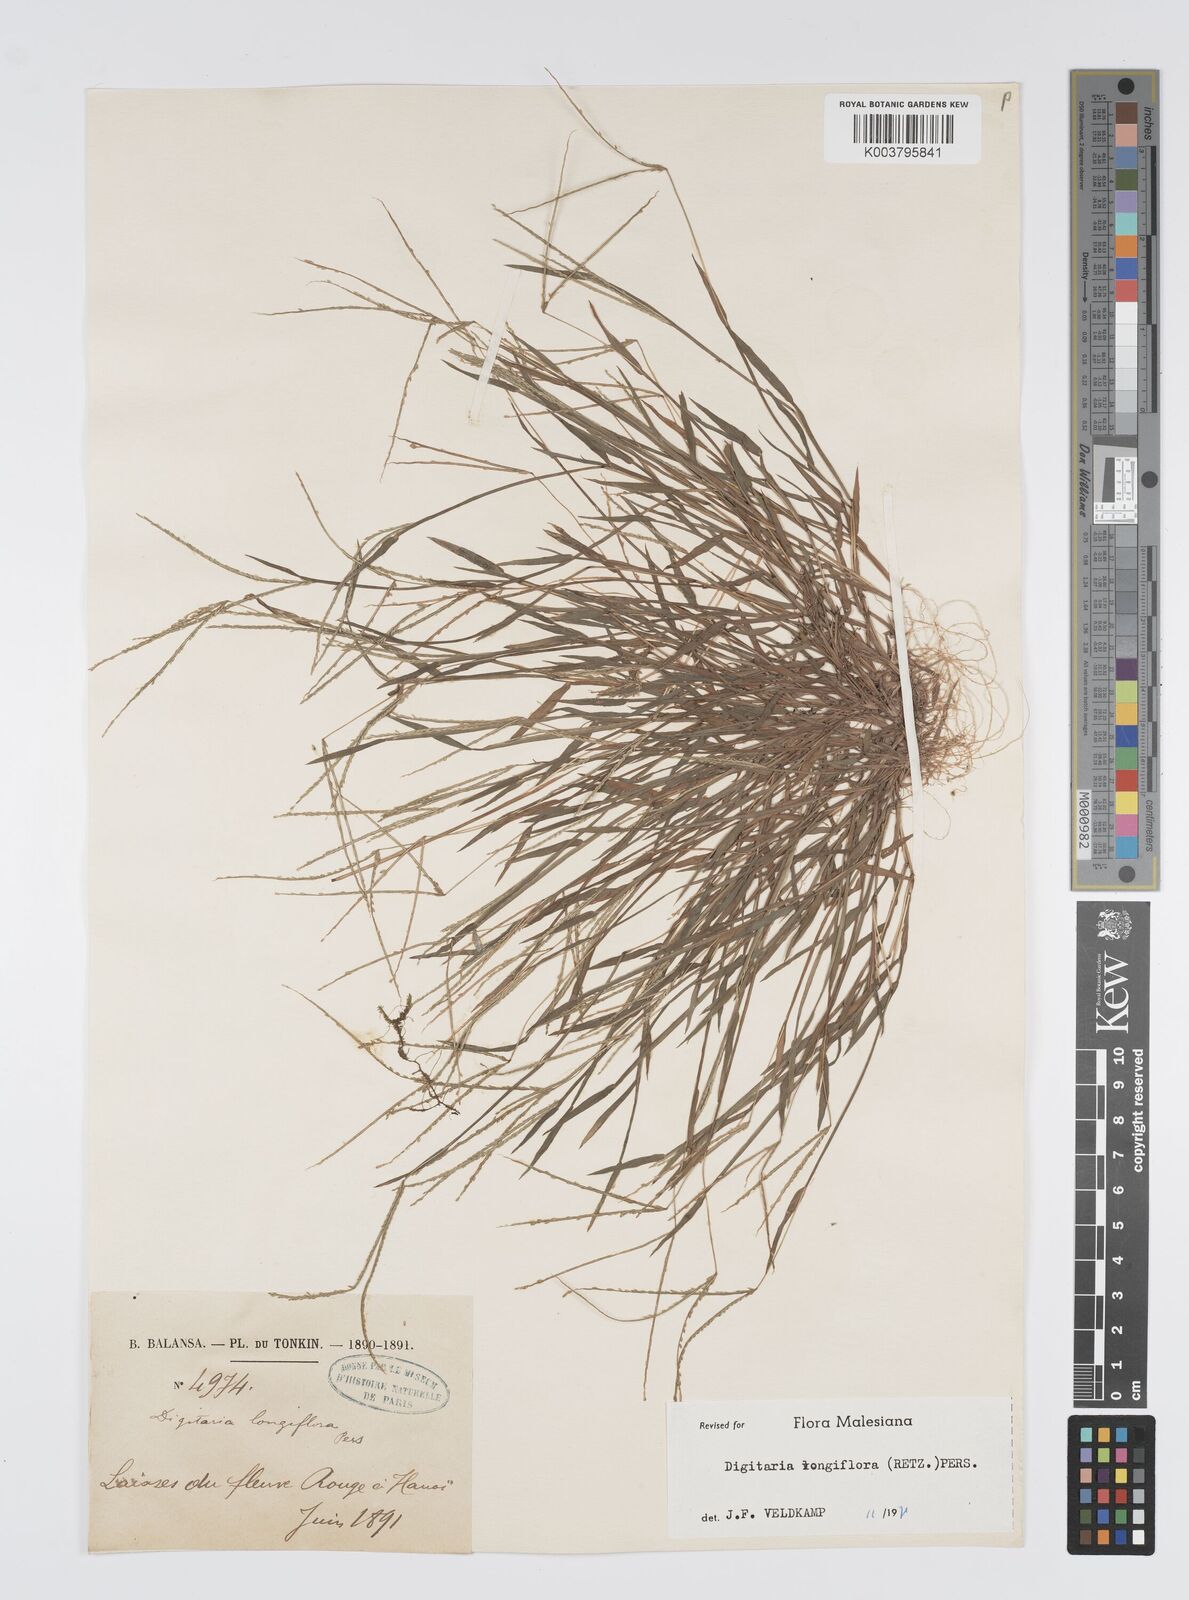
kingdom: Plantae
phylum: Tracheophyta
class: Liliopsida
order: Poales
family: Poaceae
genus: Digitaria
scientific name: Digitaria longiflora
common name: Wire crabgrass
